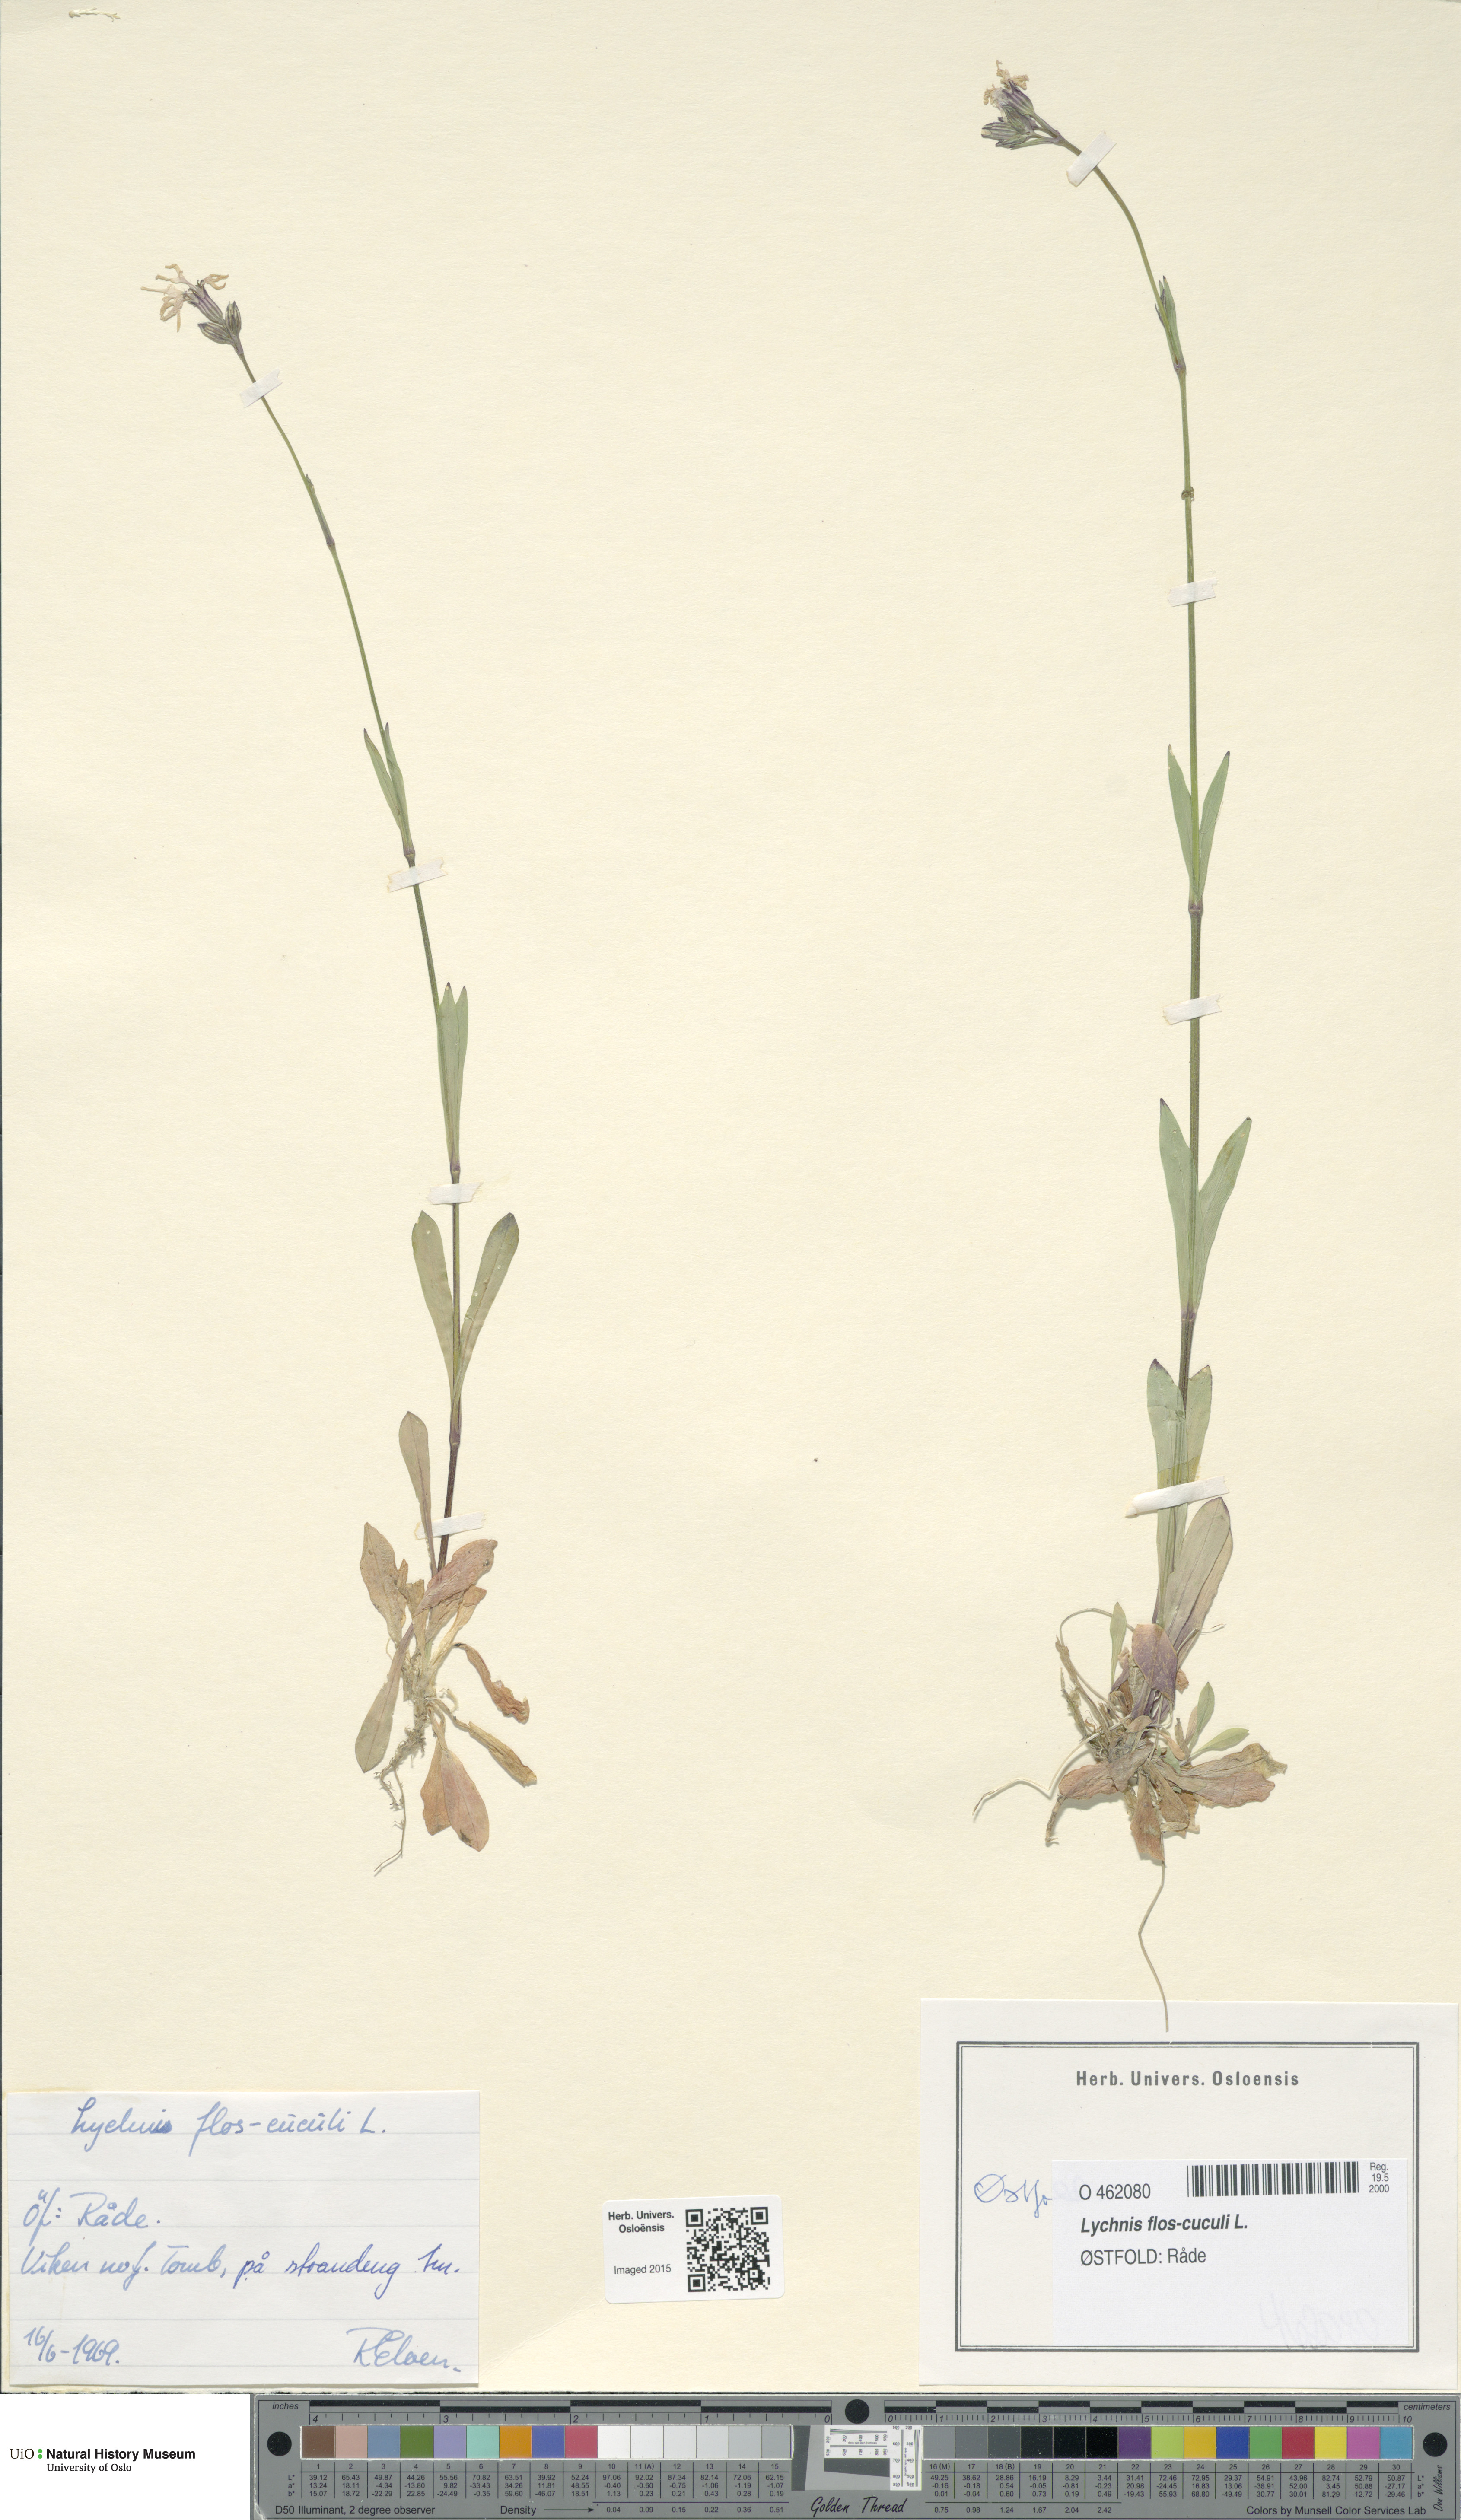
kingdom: Plantae
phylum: Tracheophyta
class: Magnoliopsida
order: Caryophyllales
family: Caryophyllaceae
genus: Silene
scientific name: Silene flos-cuculi
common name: Ragged-robin
